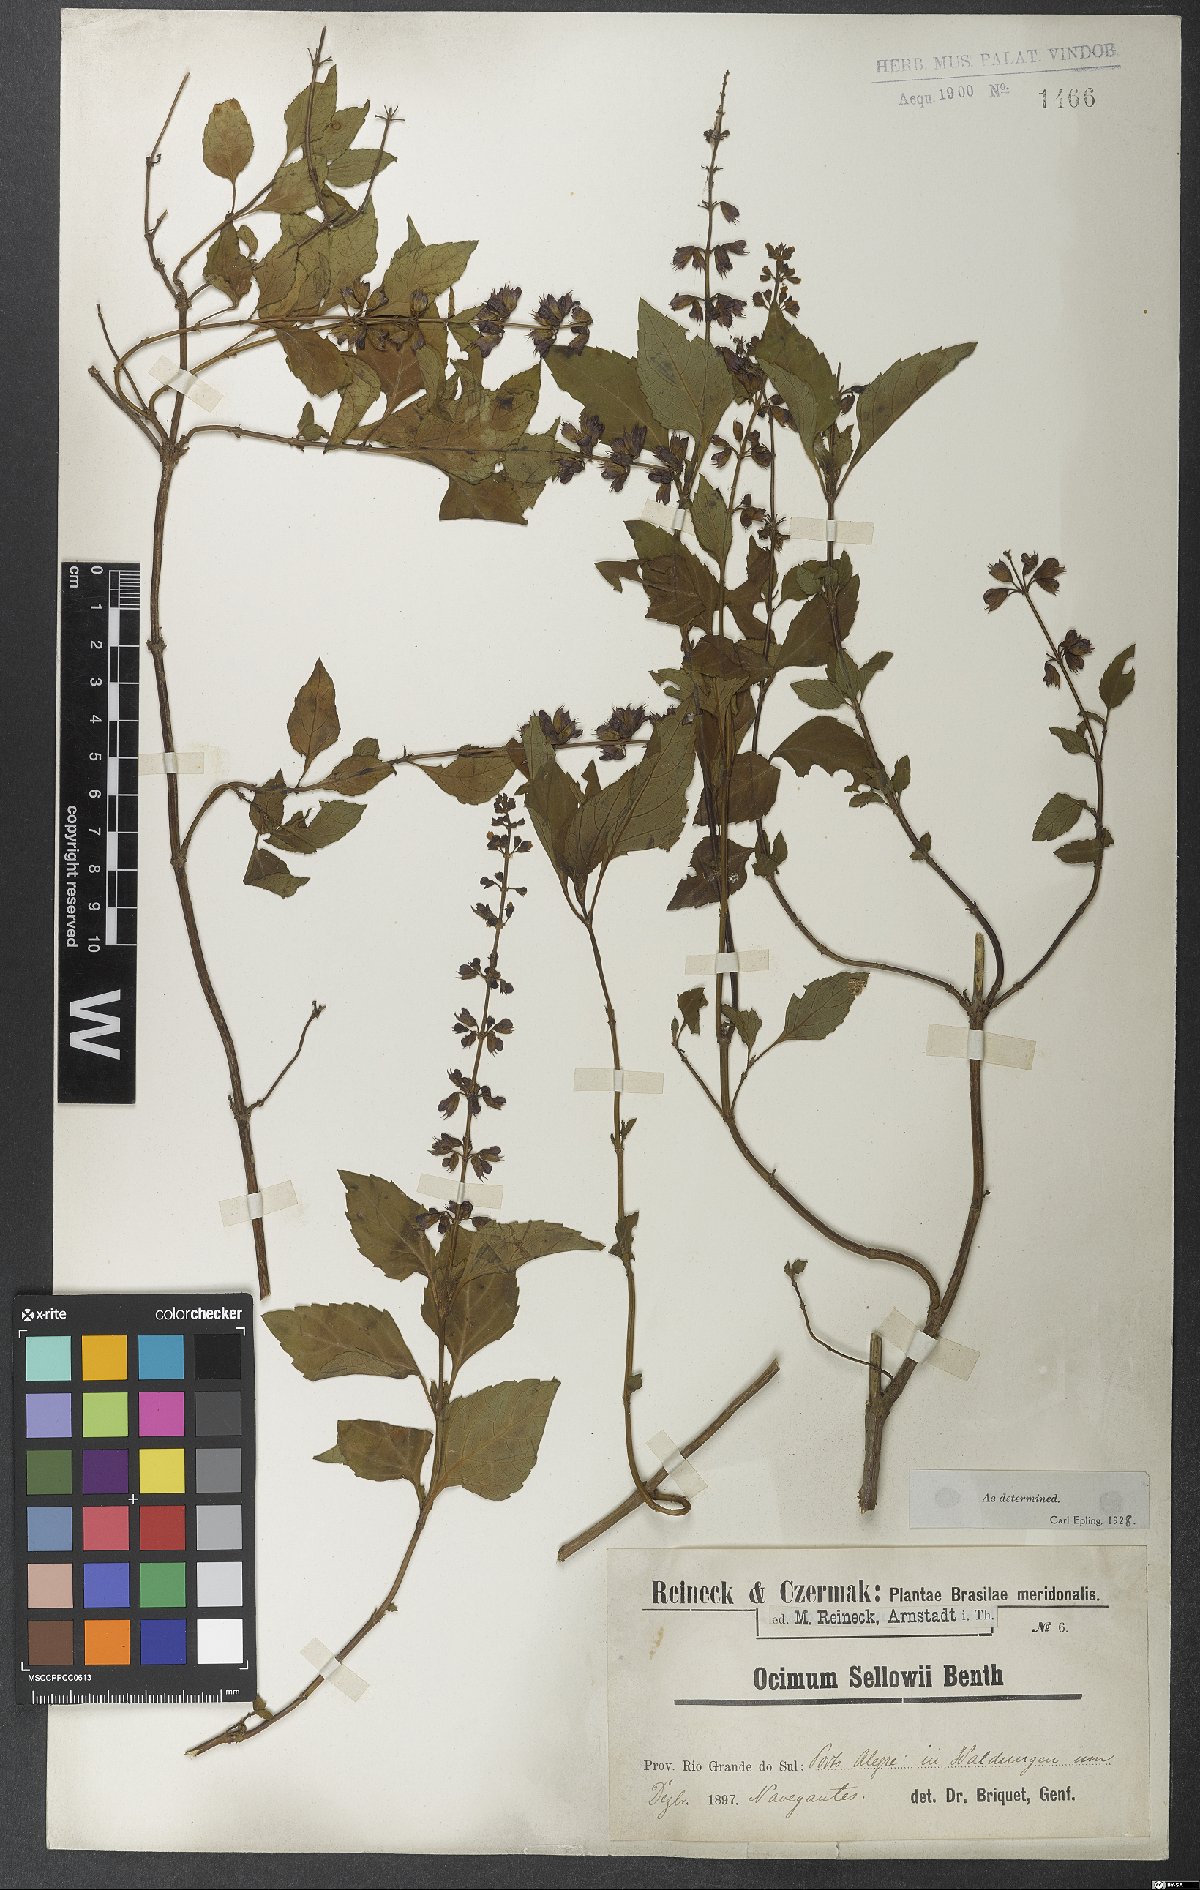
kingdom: Plantae
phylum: Tracheophyta
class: Magnoliopsida
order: Lamiales
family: Lamiaceae
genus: Ocimum
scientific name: Ocimum
